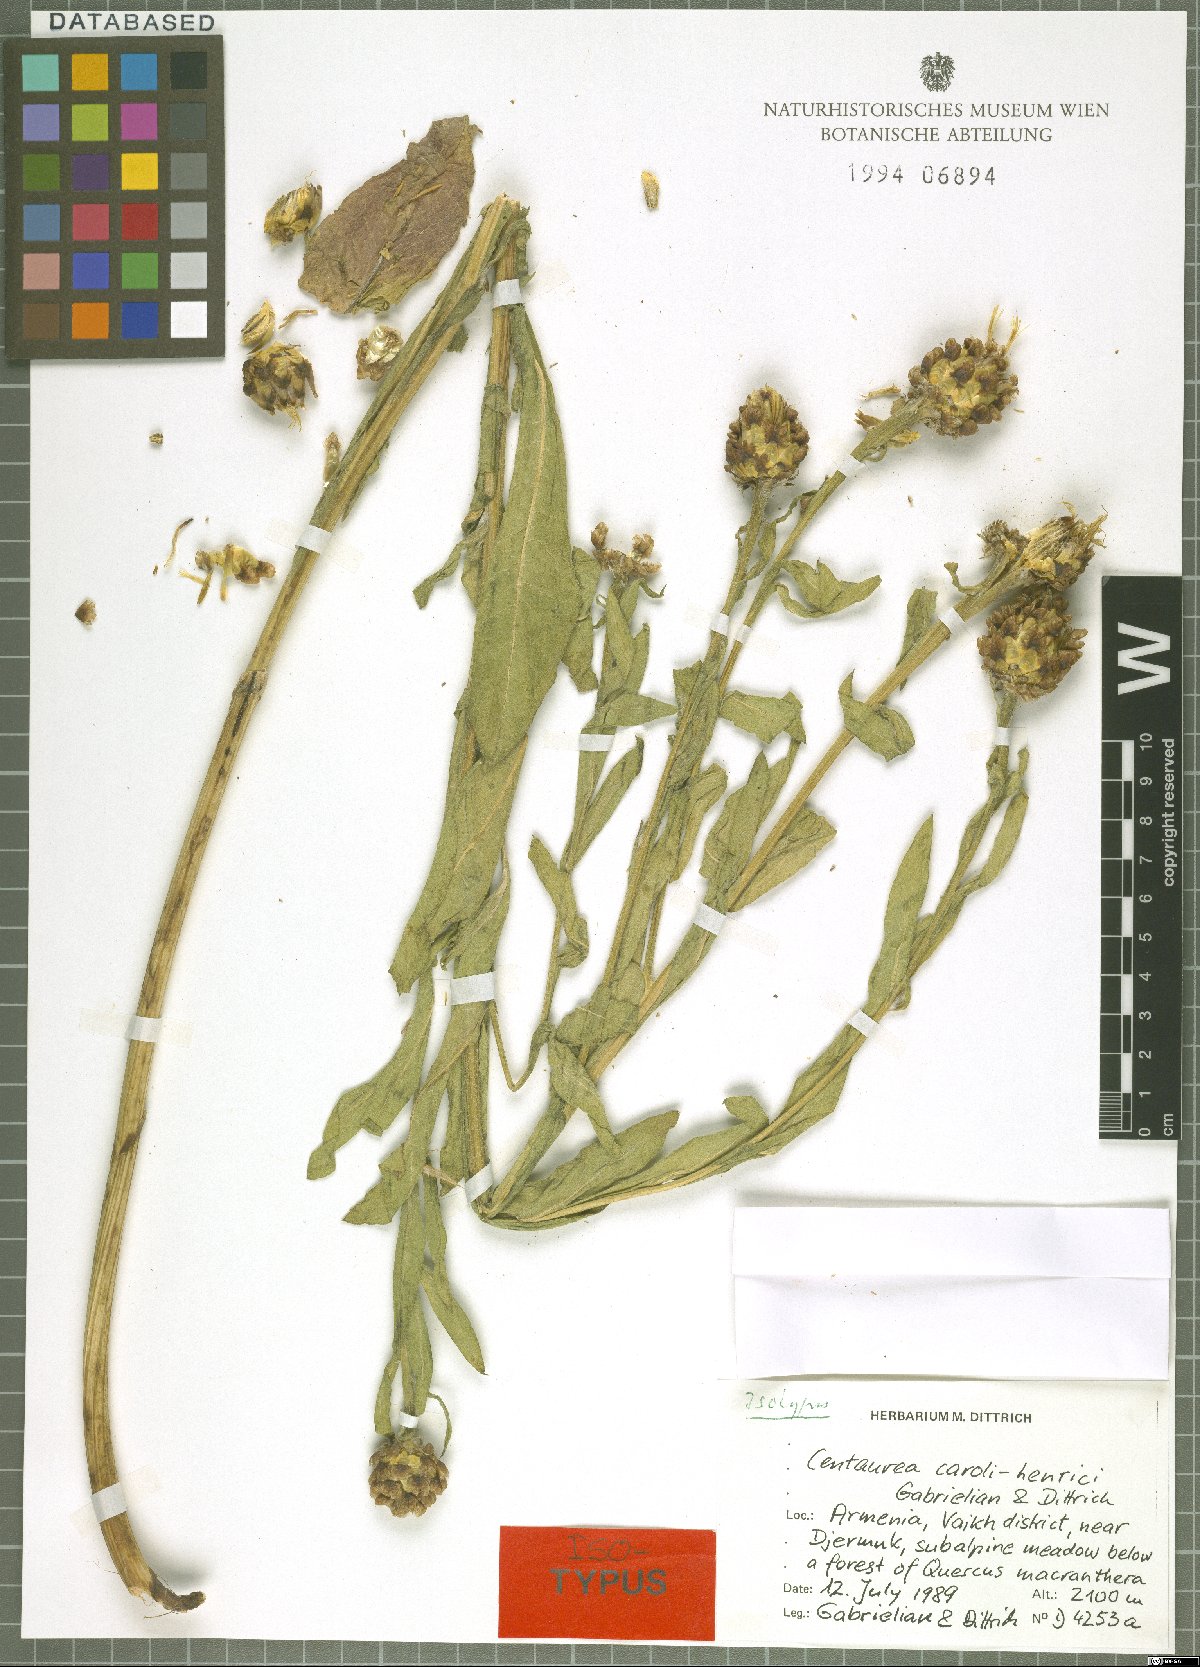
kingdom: Plantae
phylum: Tracheophyta
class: Magnoliopsida
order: Asterales
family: Asteraceae
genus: Centaurea
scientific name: Centaurea caroli-henrici
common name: Karl-henrikh's centaury
